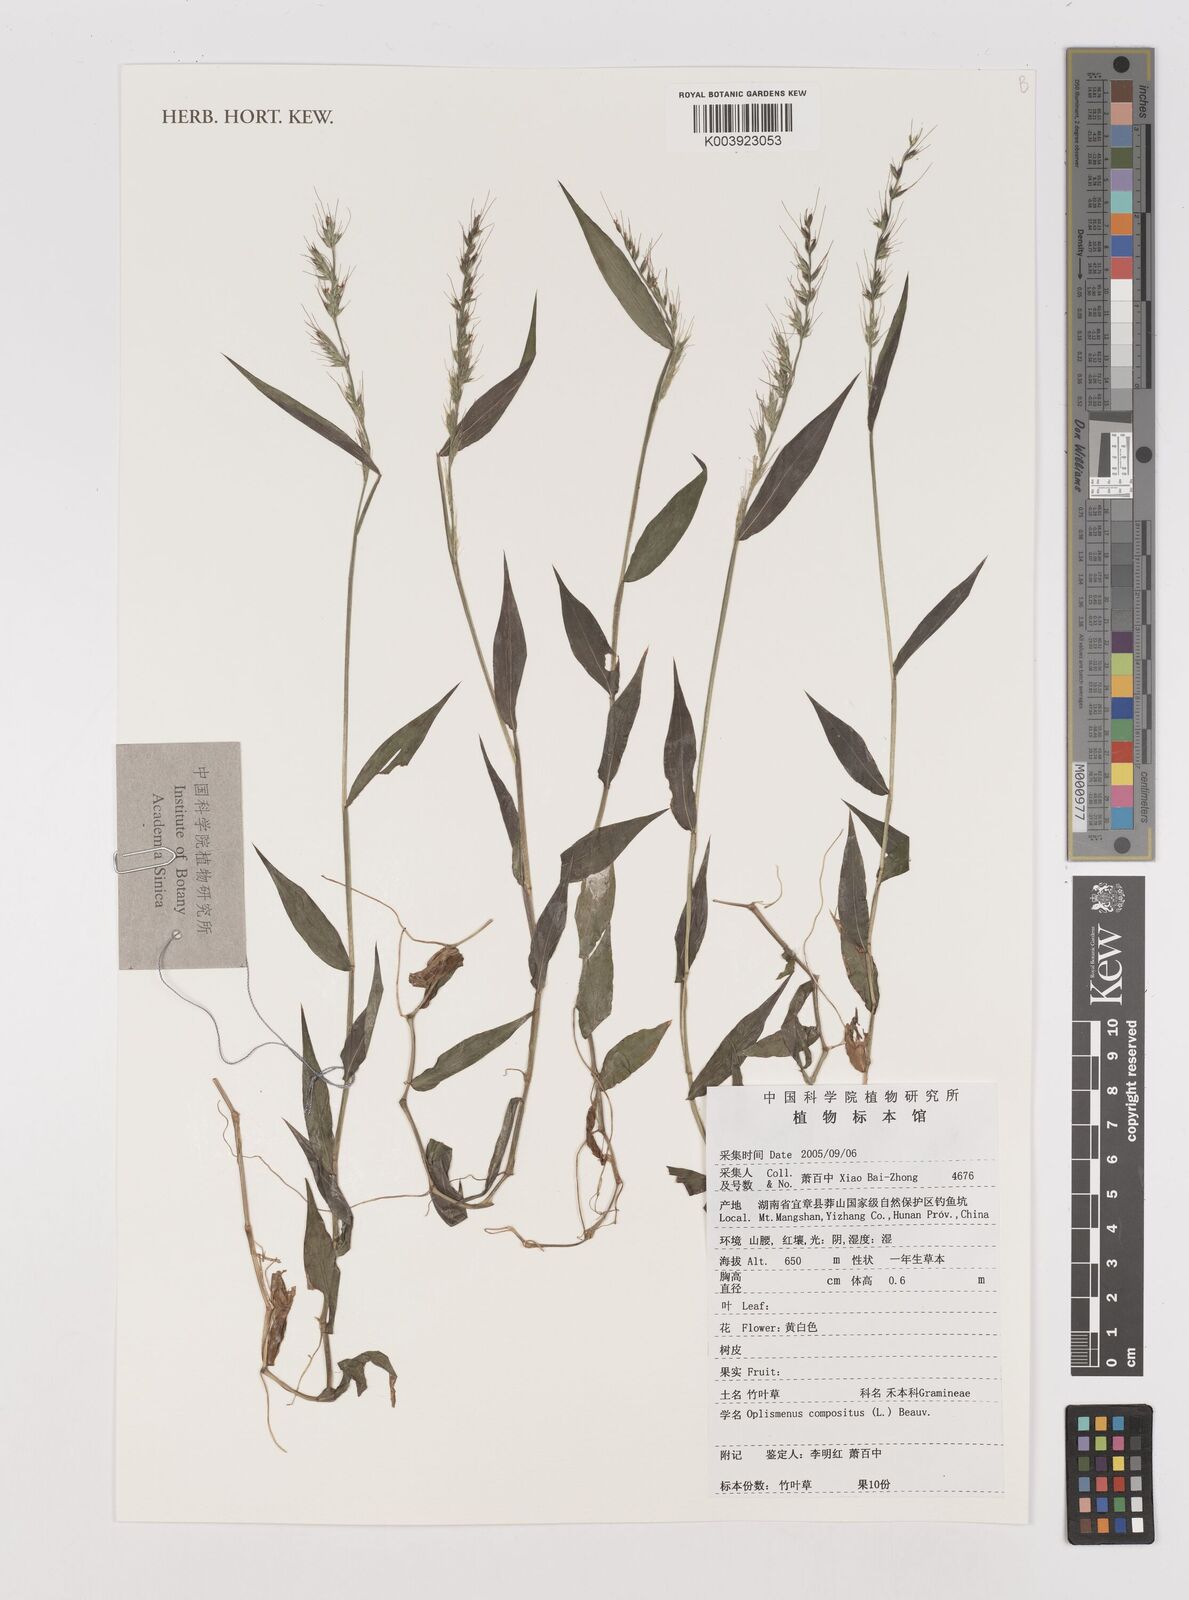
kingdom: Plantae
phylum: Tracheophyta
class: Liliopsida
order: Poales
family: Poaceae
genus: Oplismenus
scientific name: Oplismenus compositus
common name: Running mountain grass
